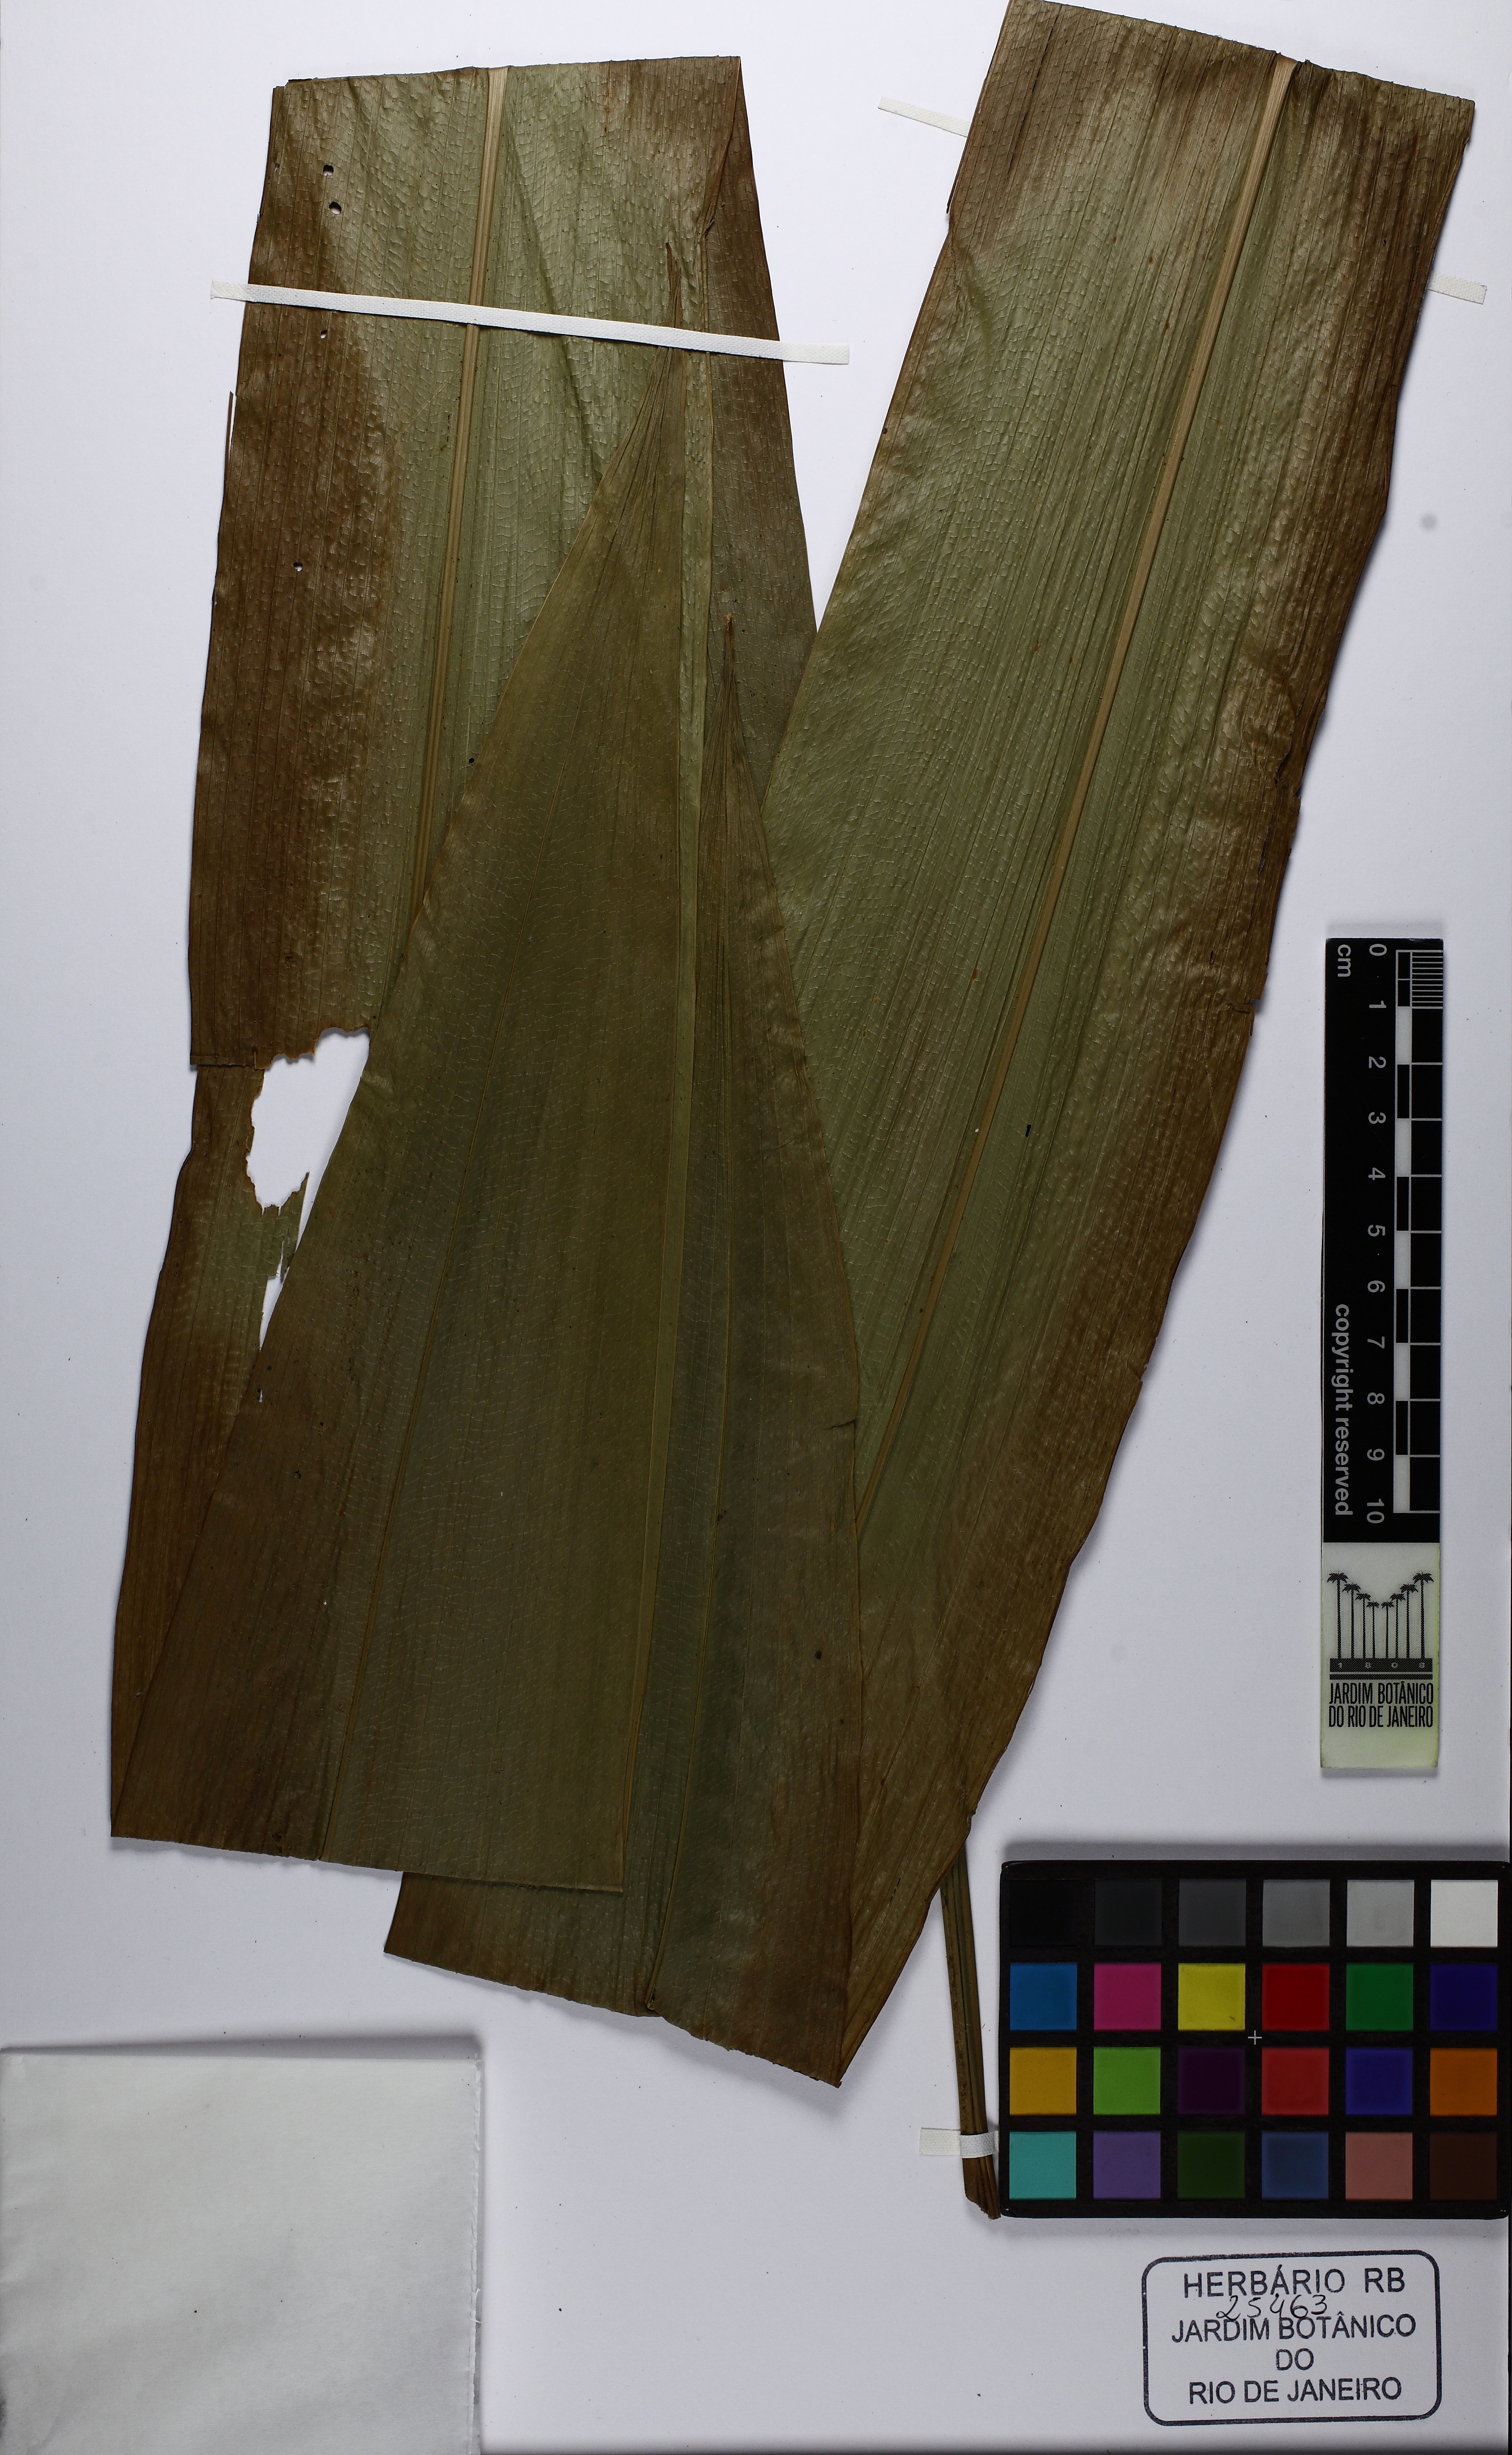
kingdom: Plantae
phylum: Tracheophyta
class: Liliopsida
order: Pandanales
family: Cyclanthaceae
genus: Cyclanthus
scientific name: Cyclanthus bipartitus
